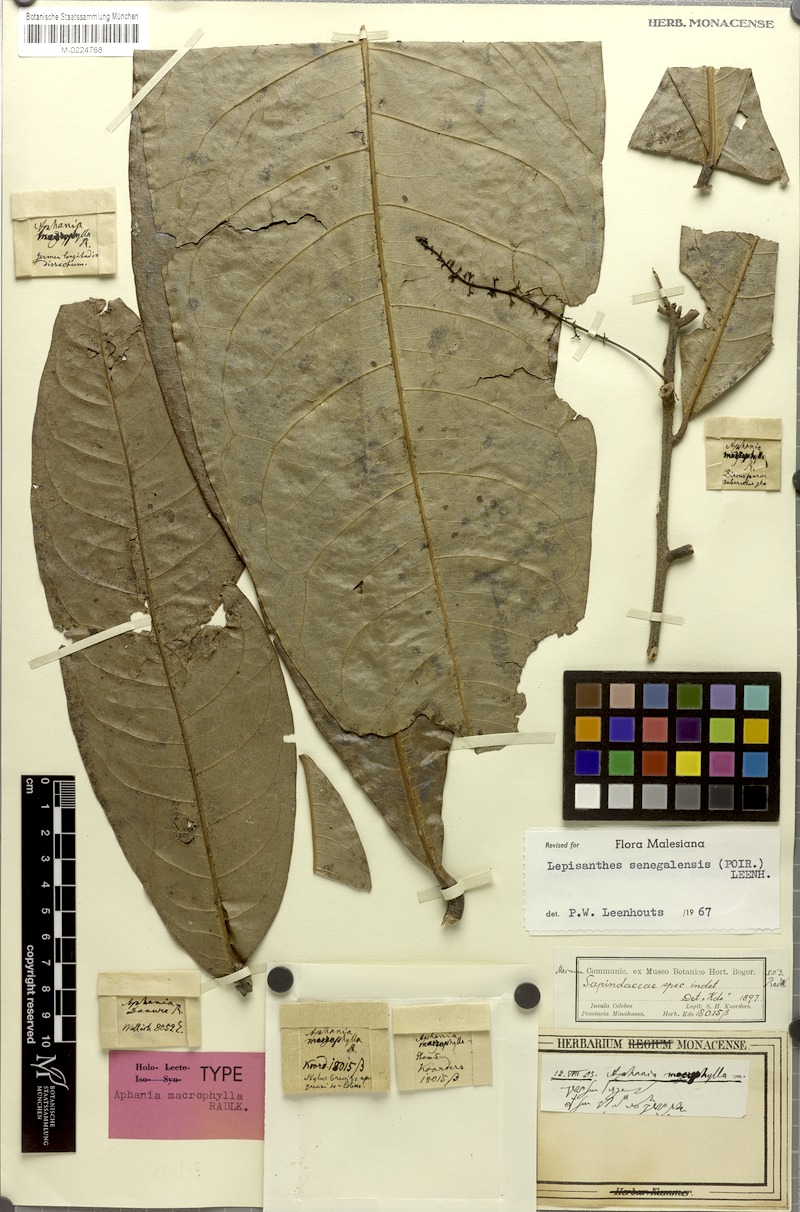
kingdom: Plantae
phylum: Tracheophyta
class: Magnoliopsida
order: Sapindales
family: Sapindaceae
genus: Lepisanthes
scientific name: Lepisanthes senegalensis
